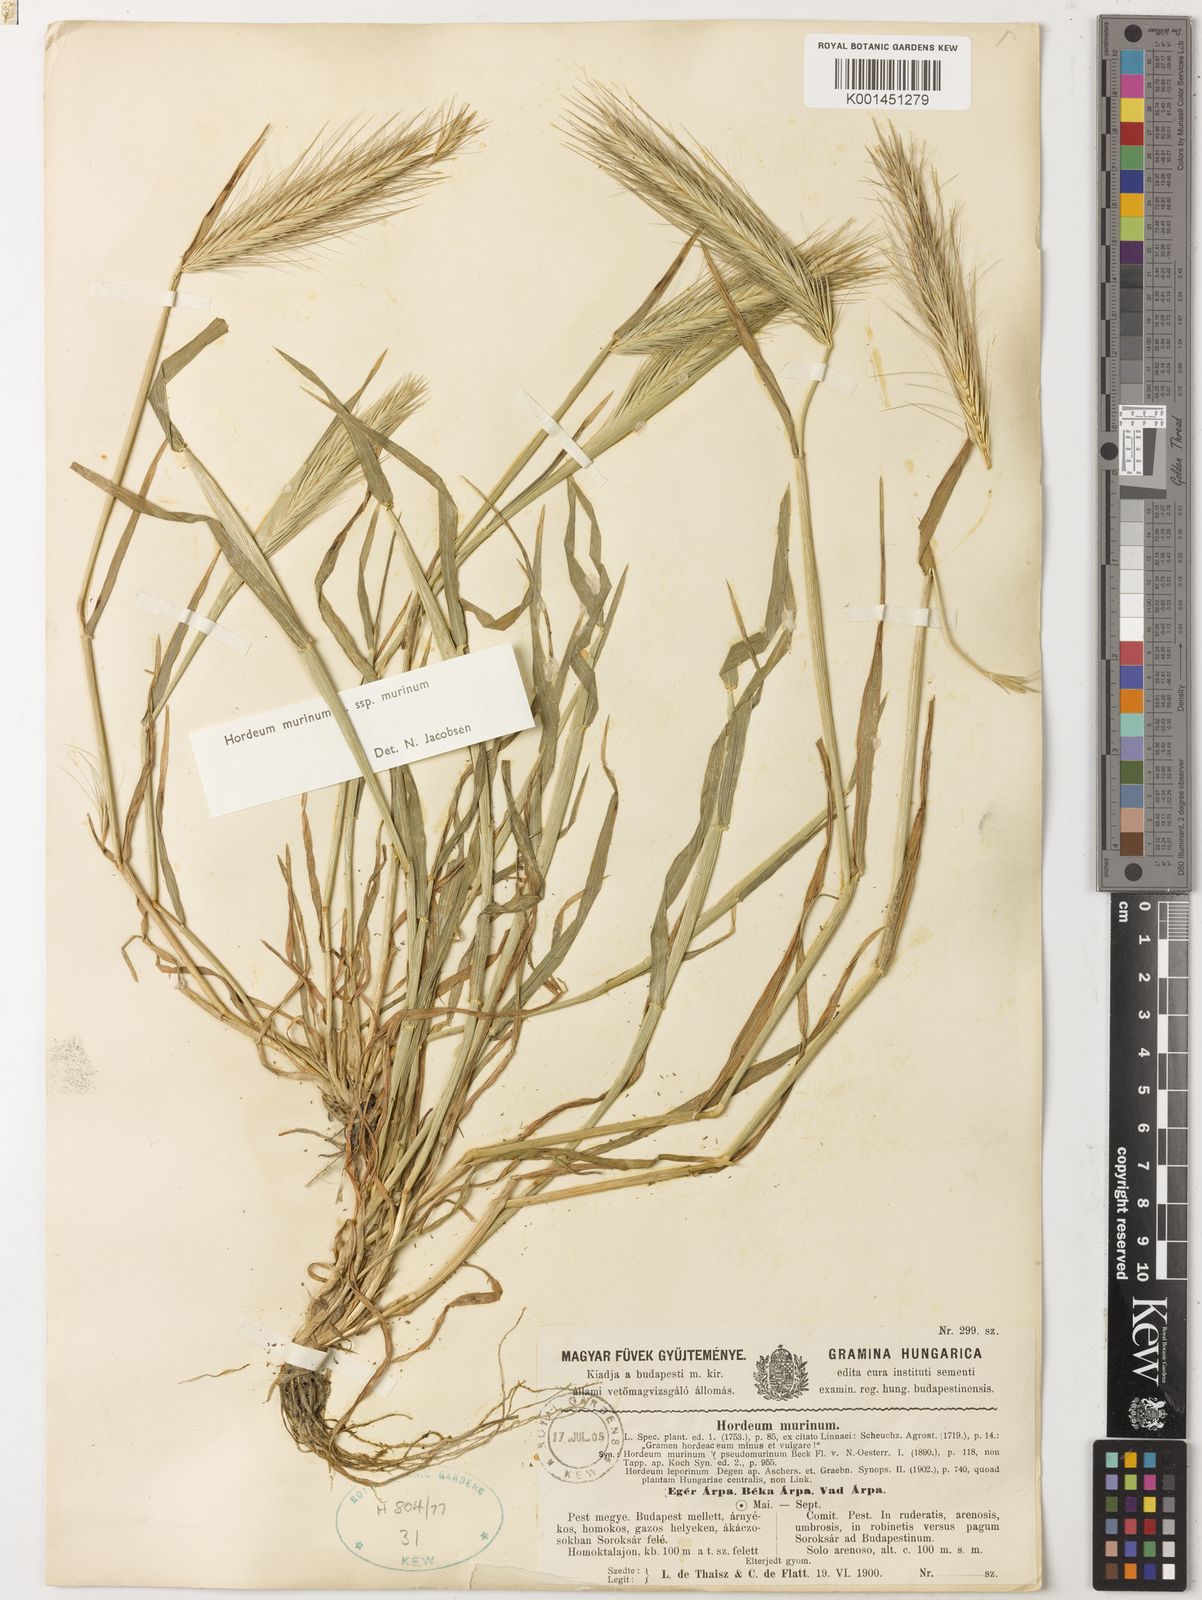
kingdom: Plantae
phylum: Tracheophyta
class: Liliopsida
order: Poales
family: Poaceae
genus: Hordeum
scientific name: Hordeum murinum
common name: Wall barley
